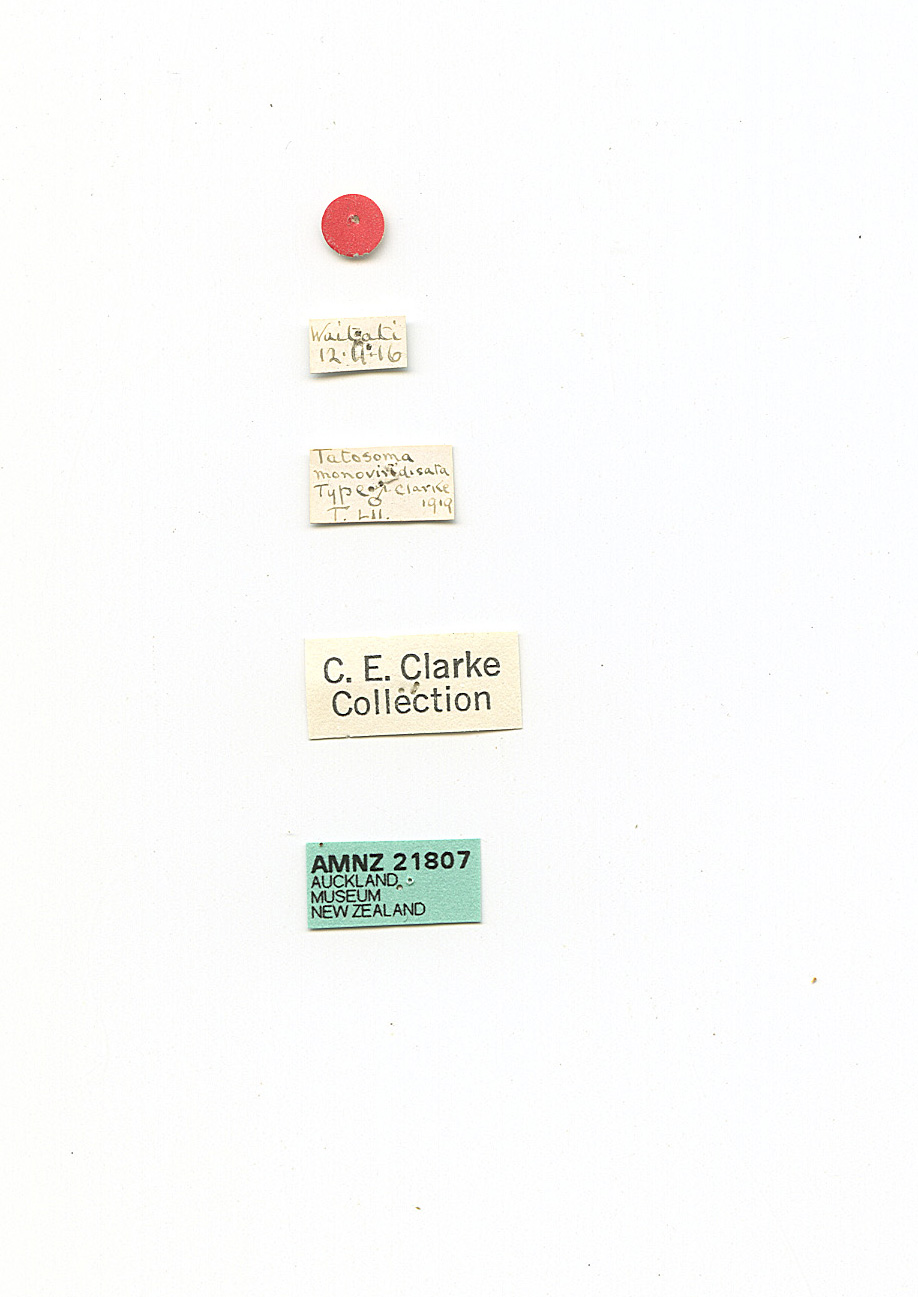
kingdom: Animalia
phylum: Arthropoda
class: Insecta
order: Lepidoptera
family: Geometridae
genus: Tatosoma
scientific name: Tatosoma monoviridisata
